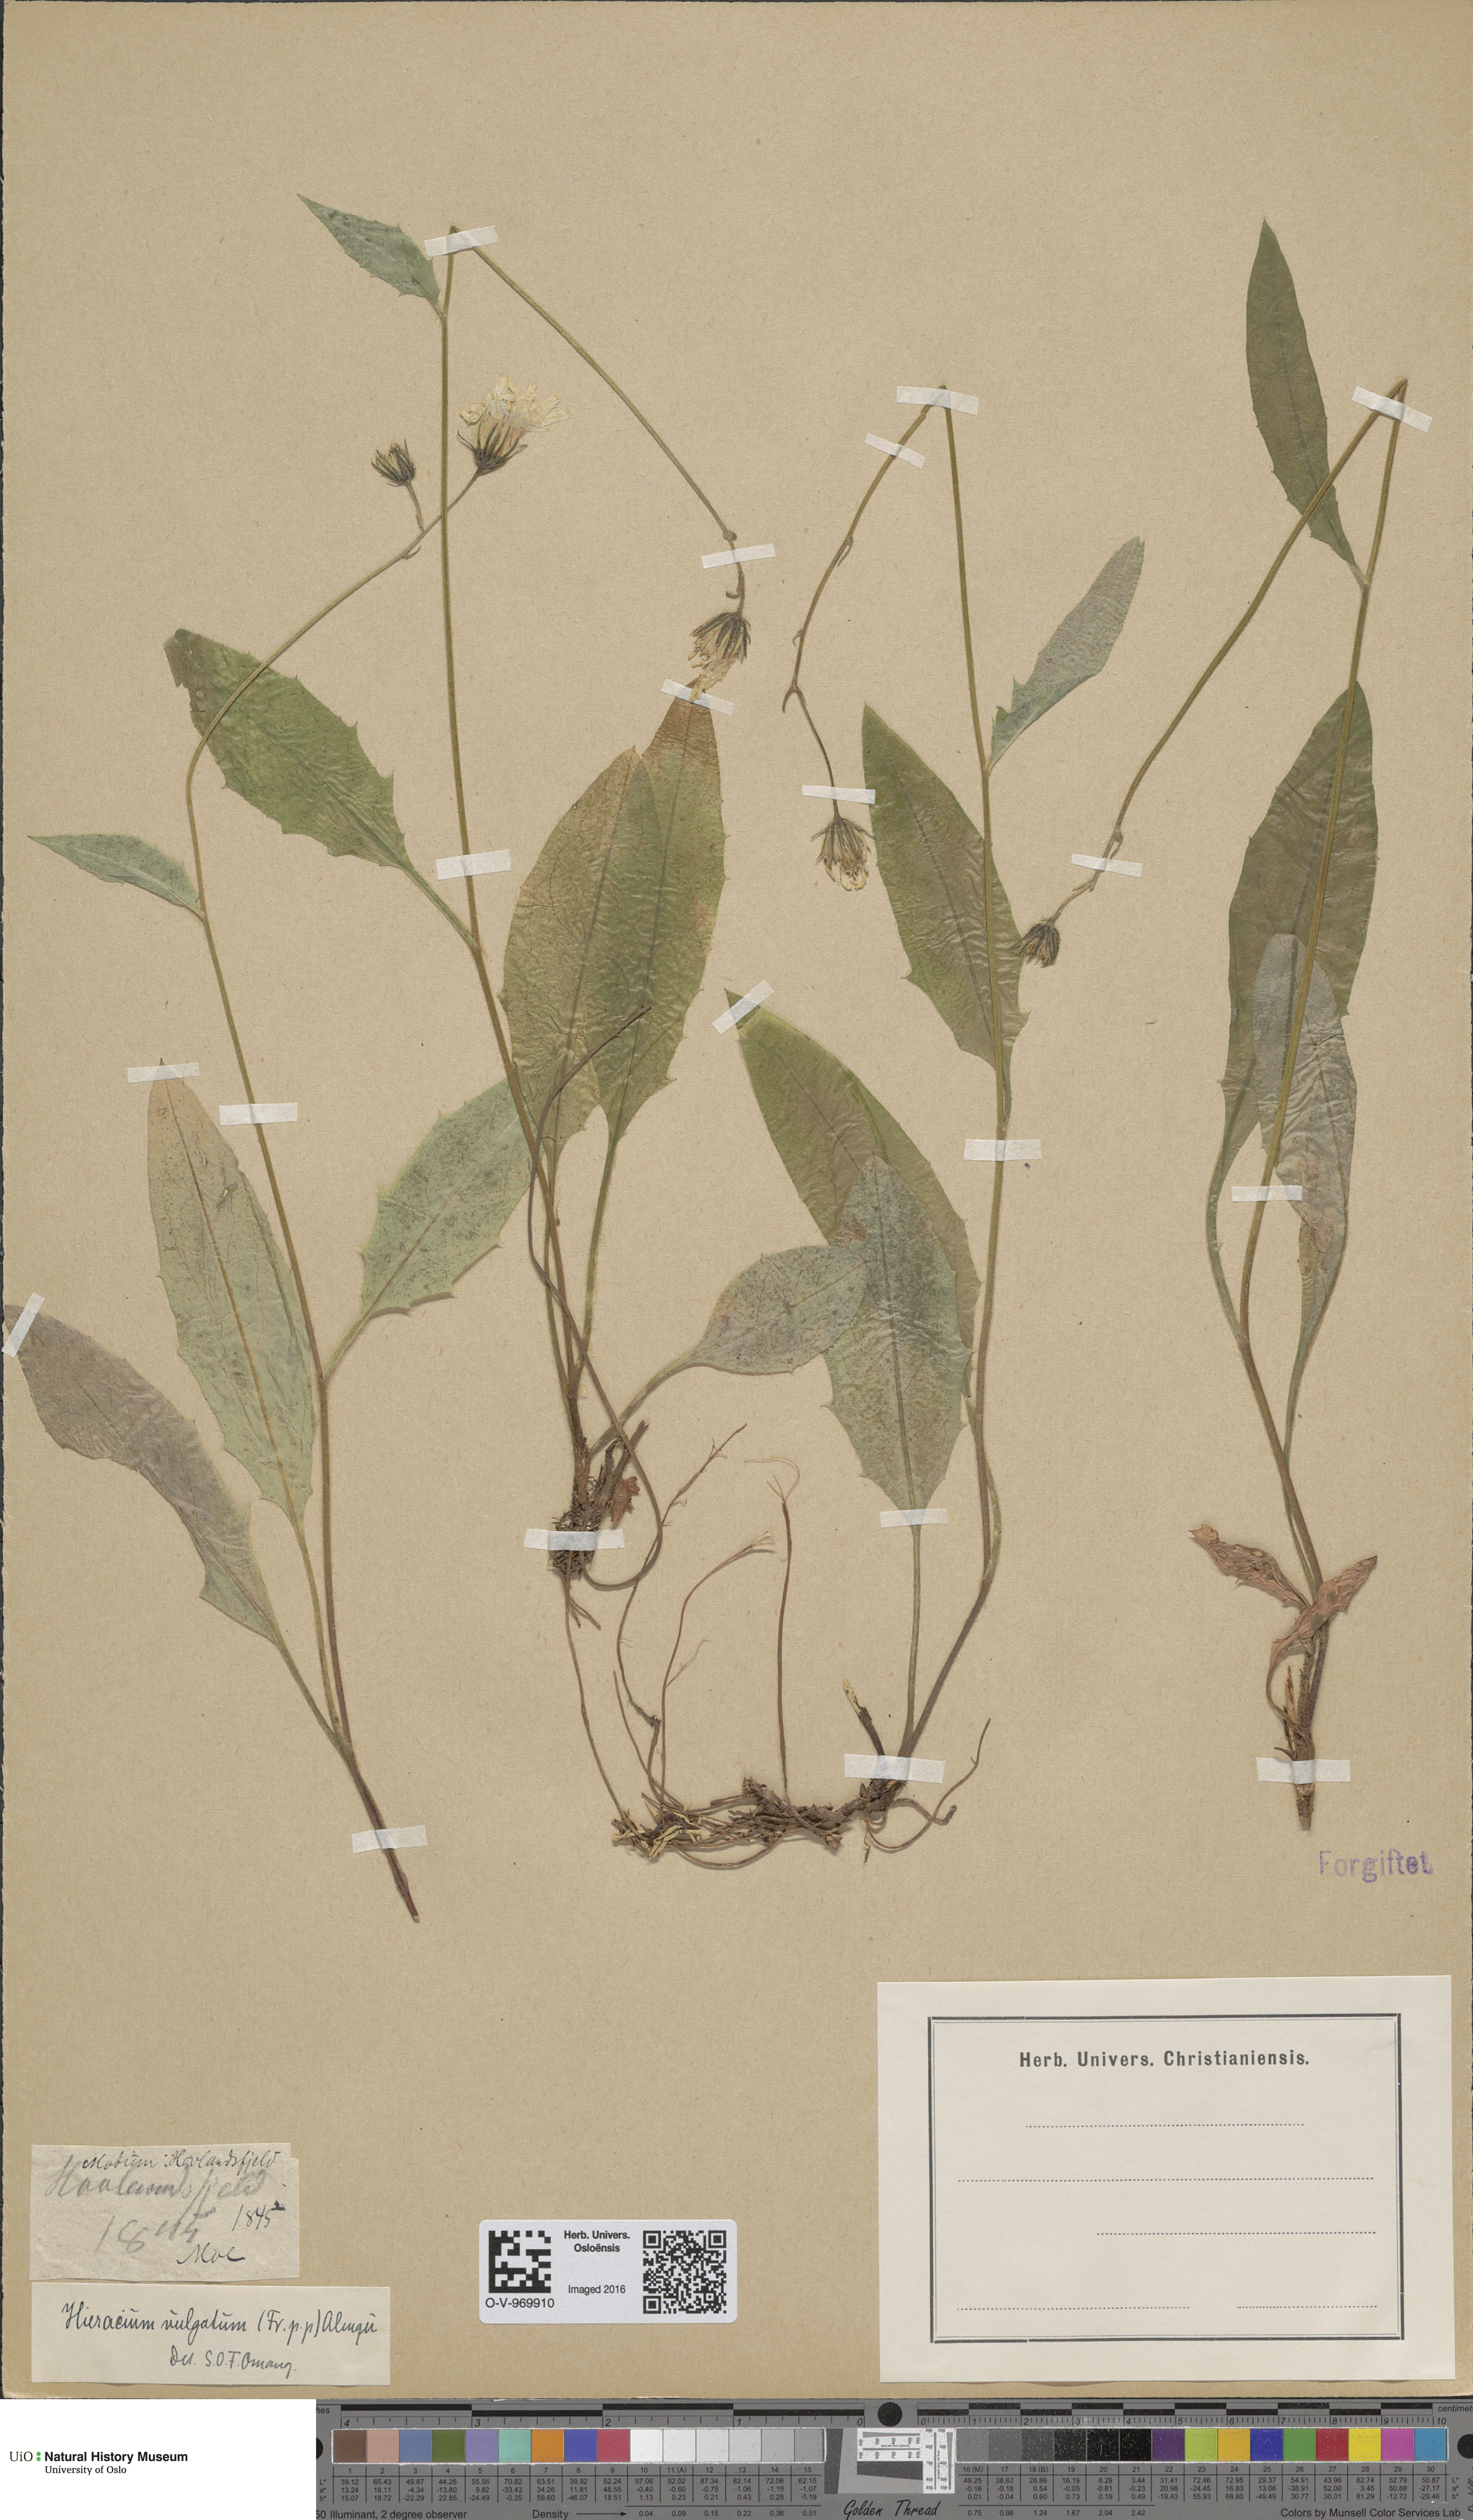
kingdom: Plantae
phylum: Tracheophyta
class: Magnoliopsida
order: Asterales
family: Asteraceae
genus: Hieracium
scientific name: Hieracium vulgatum
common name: Common hawkweed
